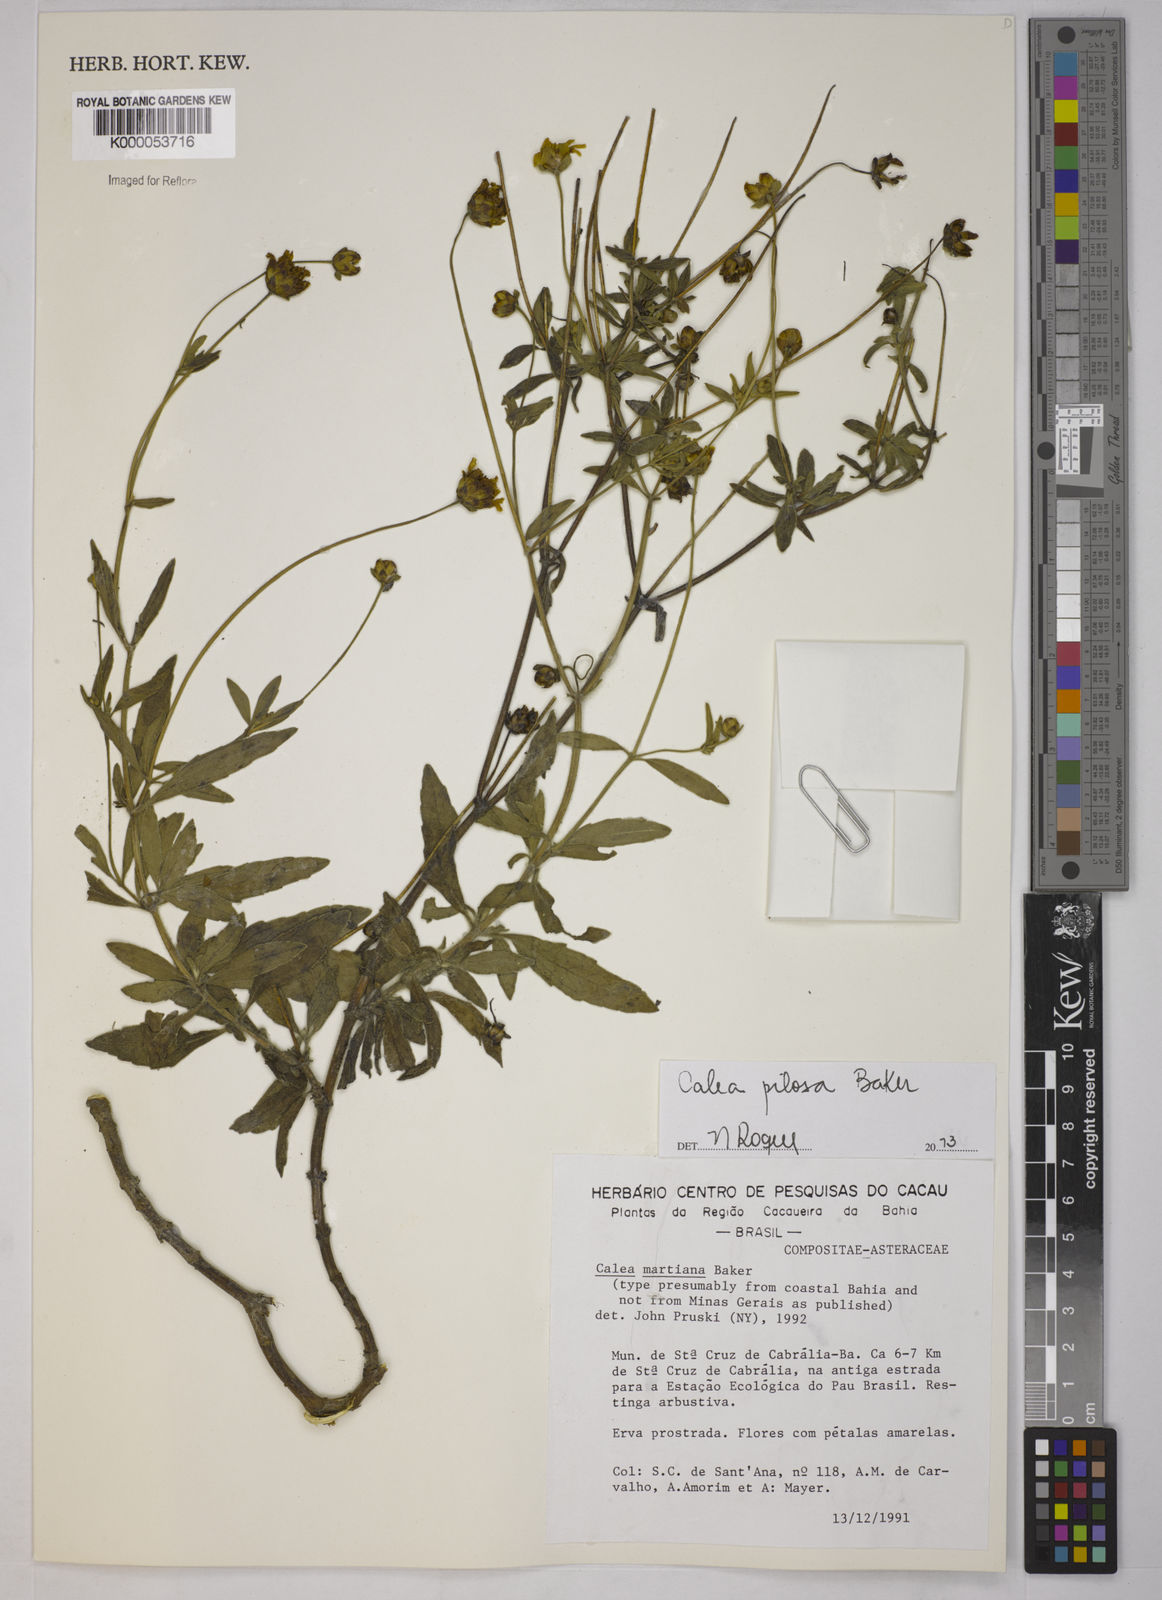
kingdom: Plantae
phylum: Tracheophyta
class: Magnoliopsida
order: Asterales
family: Asteraceae
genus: Calea
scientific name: Calea martiana
